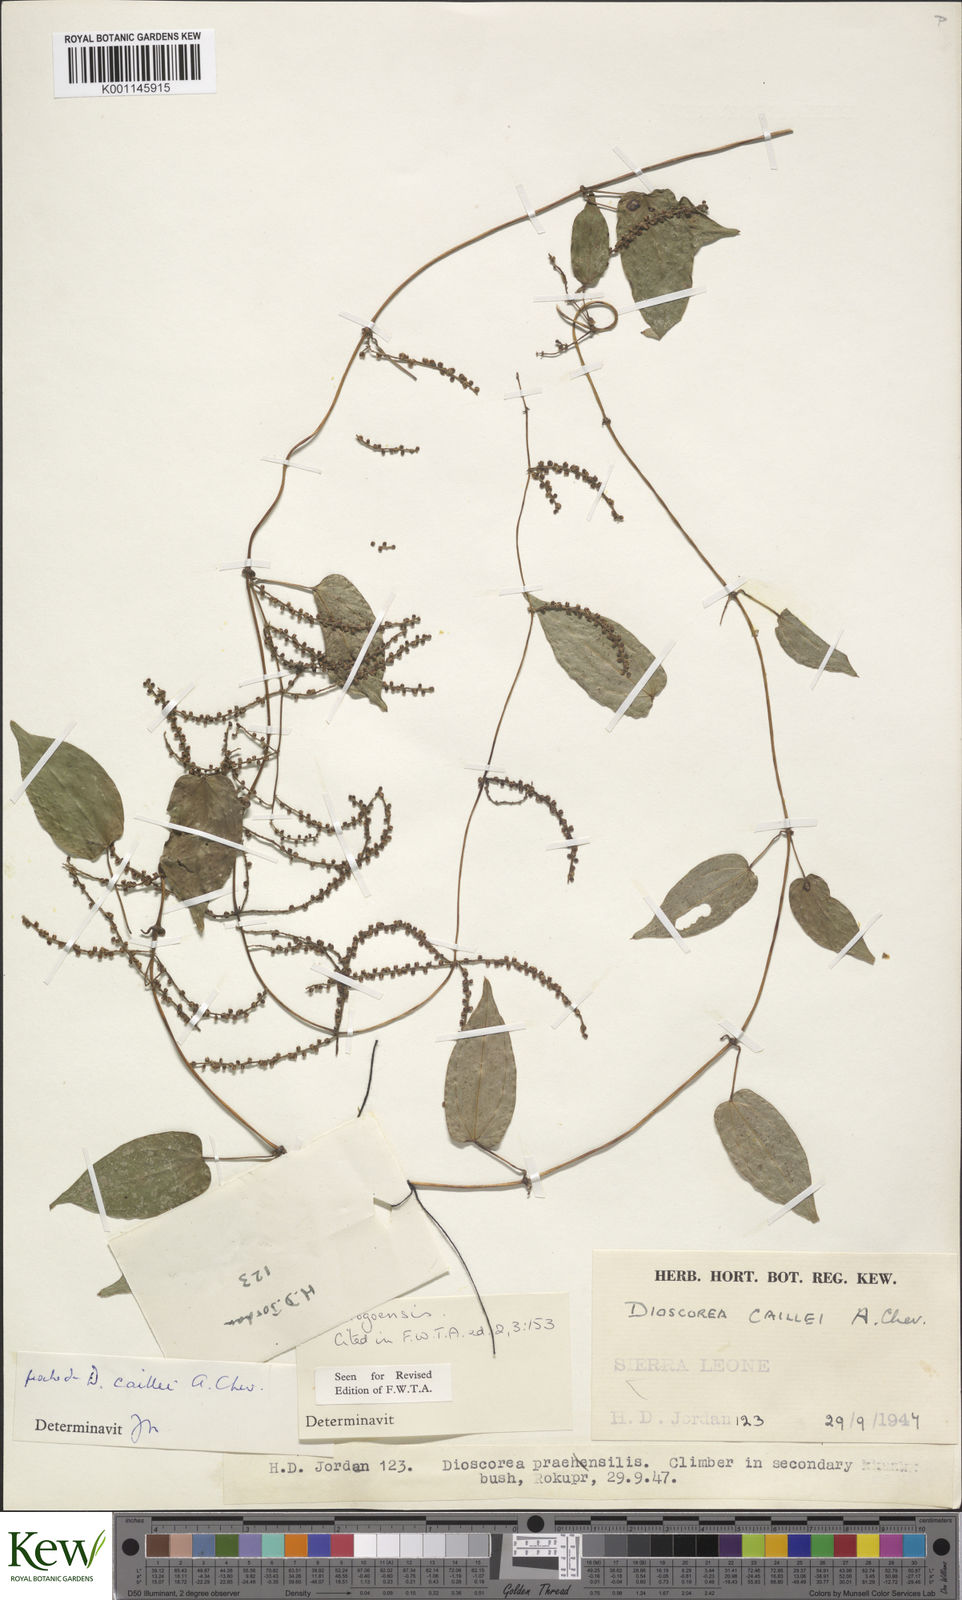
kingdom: Plantae
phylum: Tracheophyta
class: Liliopsida
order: Dioscoreales
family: Dioscoreaceae
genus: Dioscorea
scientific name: Dioscorea togoensis
